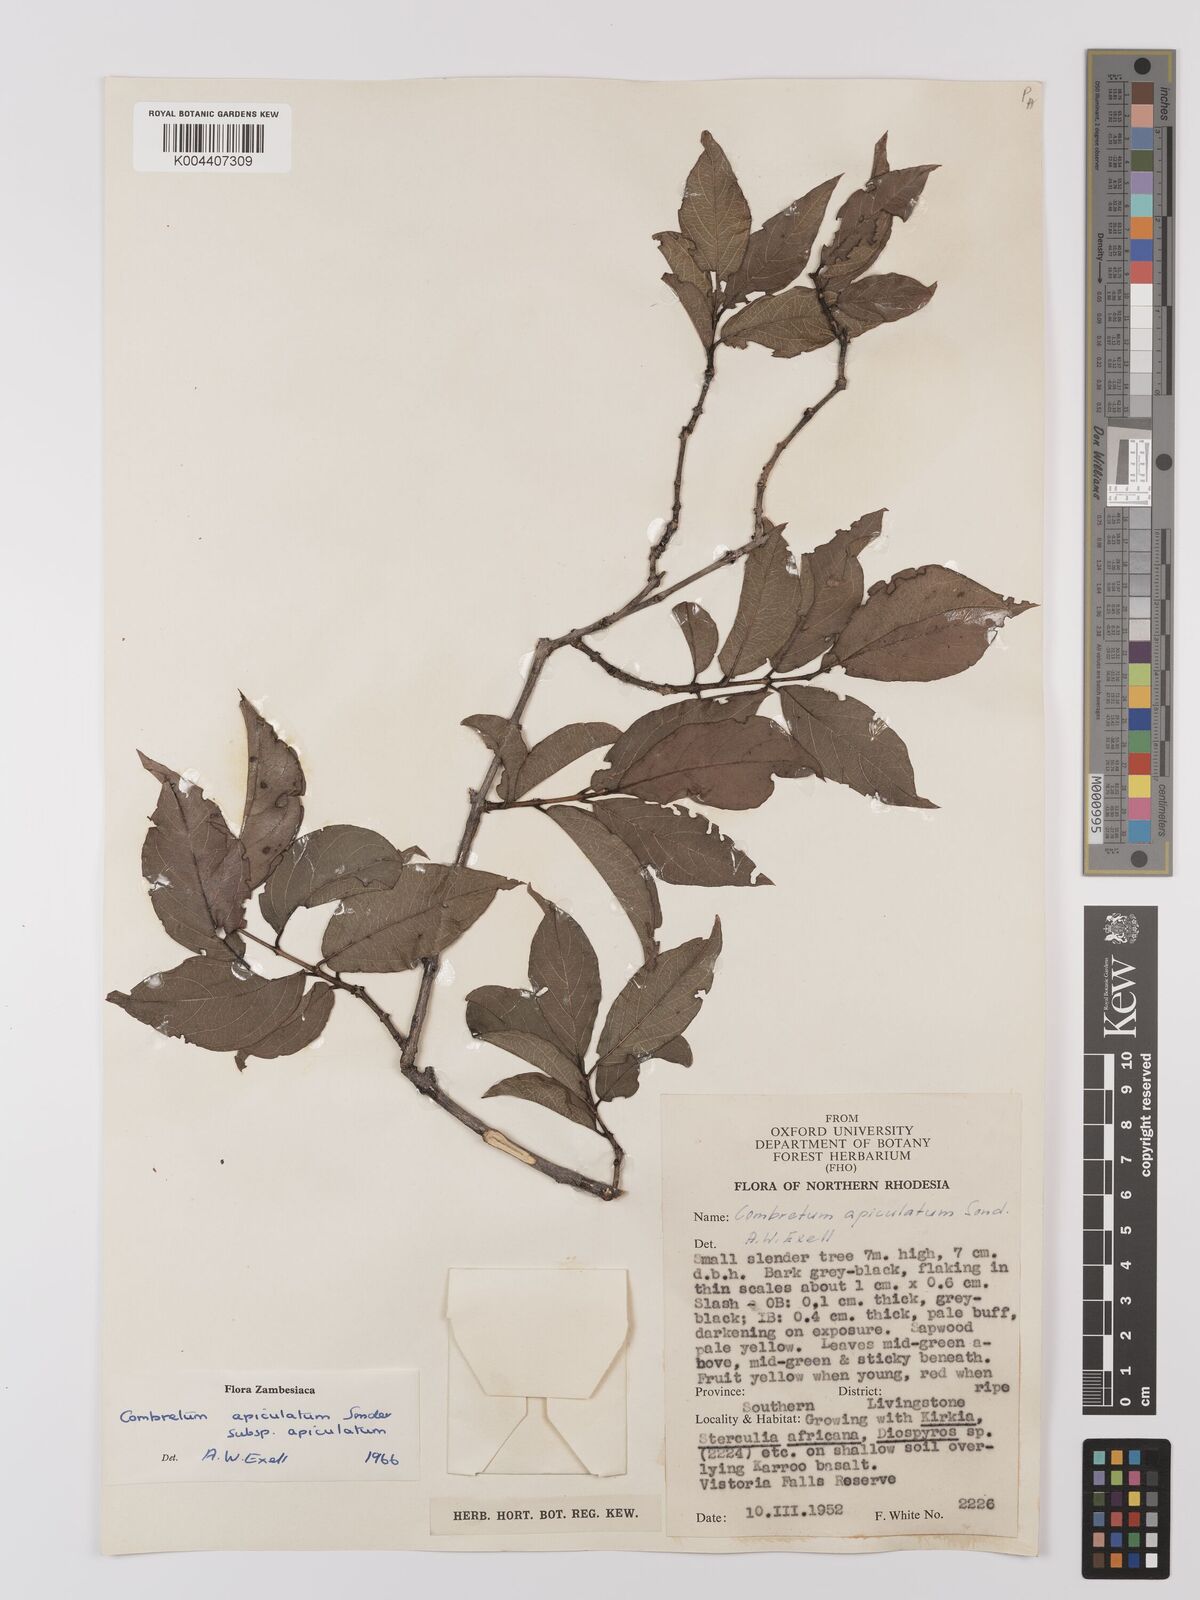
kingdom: Plantae
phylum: Tracheophyta
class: Magnoliopsida
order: Myrtales
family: Combretaceae
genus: Combretum
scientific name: Combretum apiculatum
